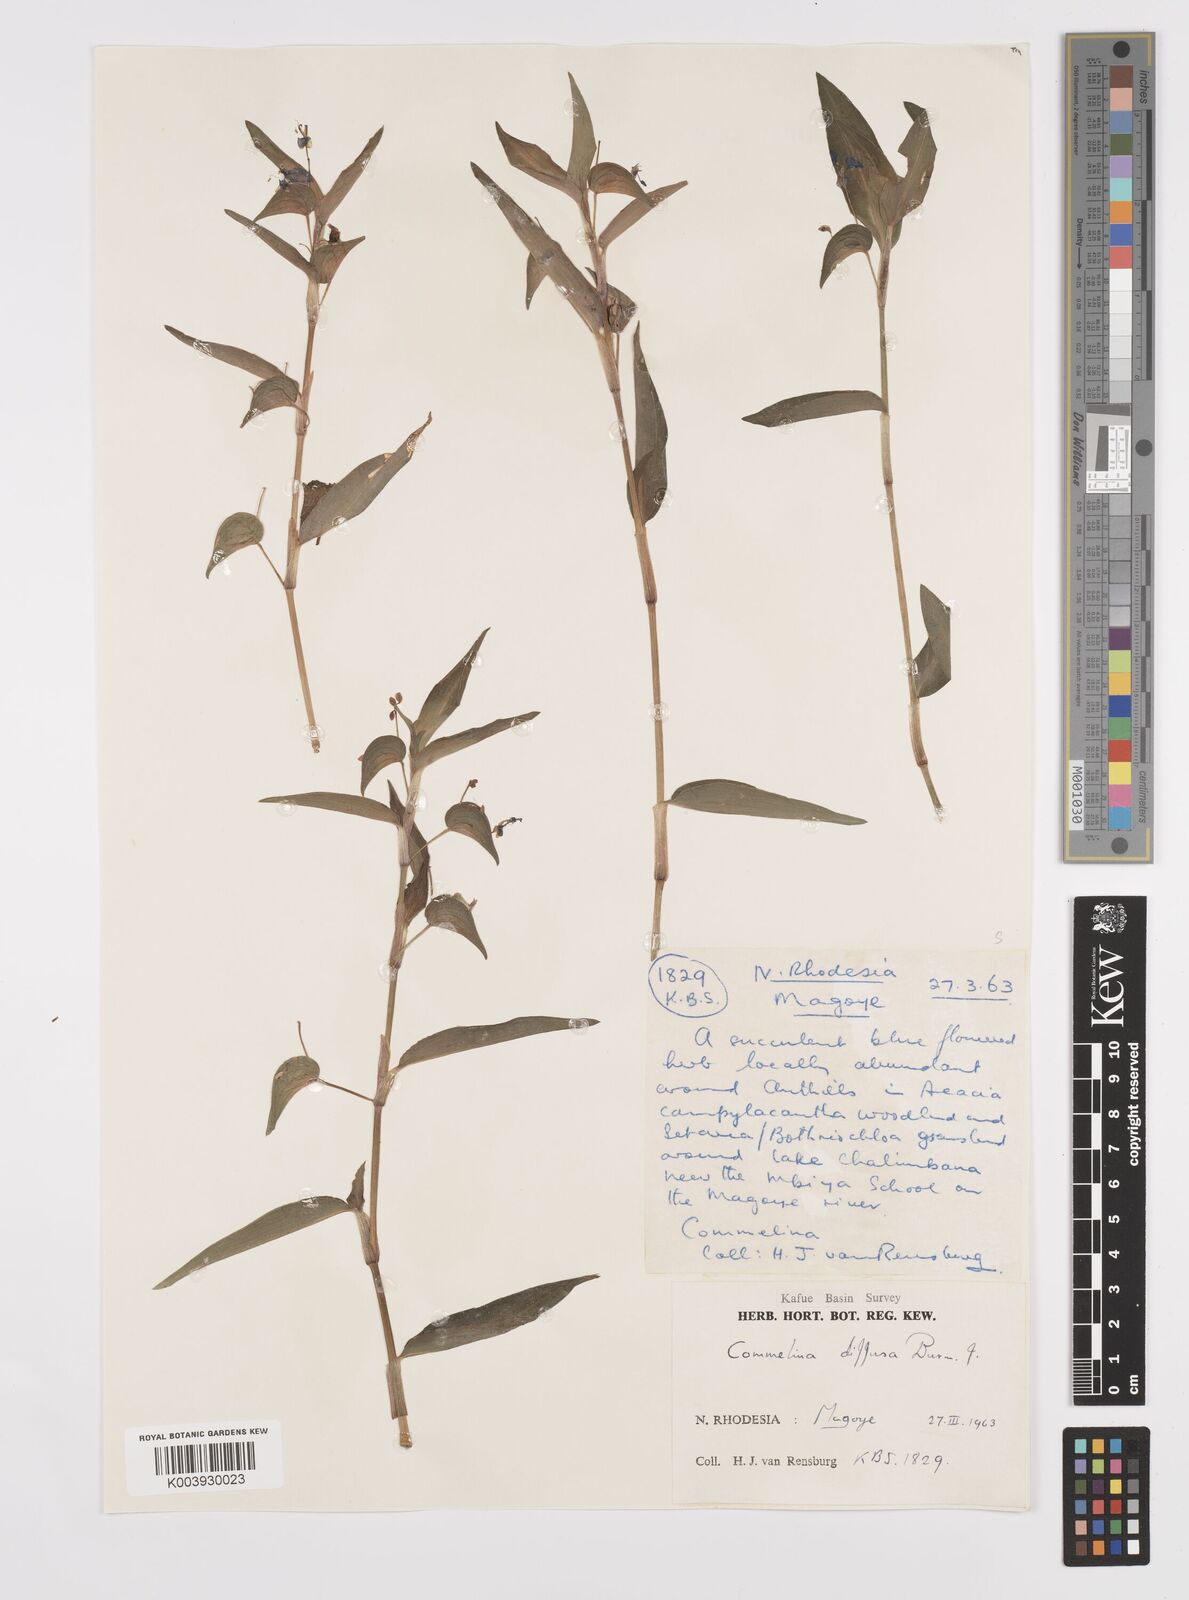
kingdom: Plantae
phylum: Tracheophyta
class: Liliopsida
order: Commelinales
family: Commelinaceae
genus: Commelina
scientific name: Commelina diffusa
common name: Climbing dayflower
